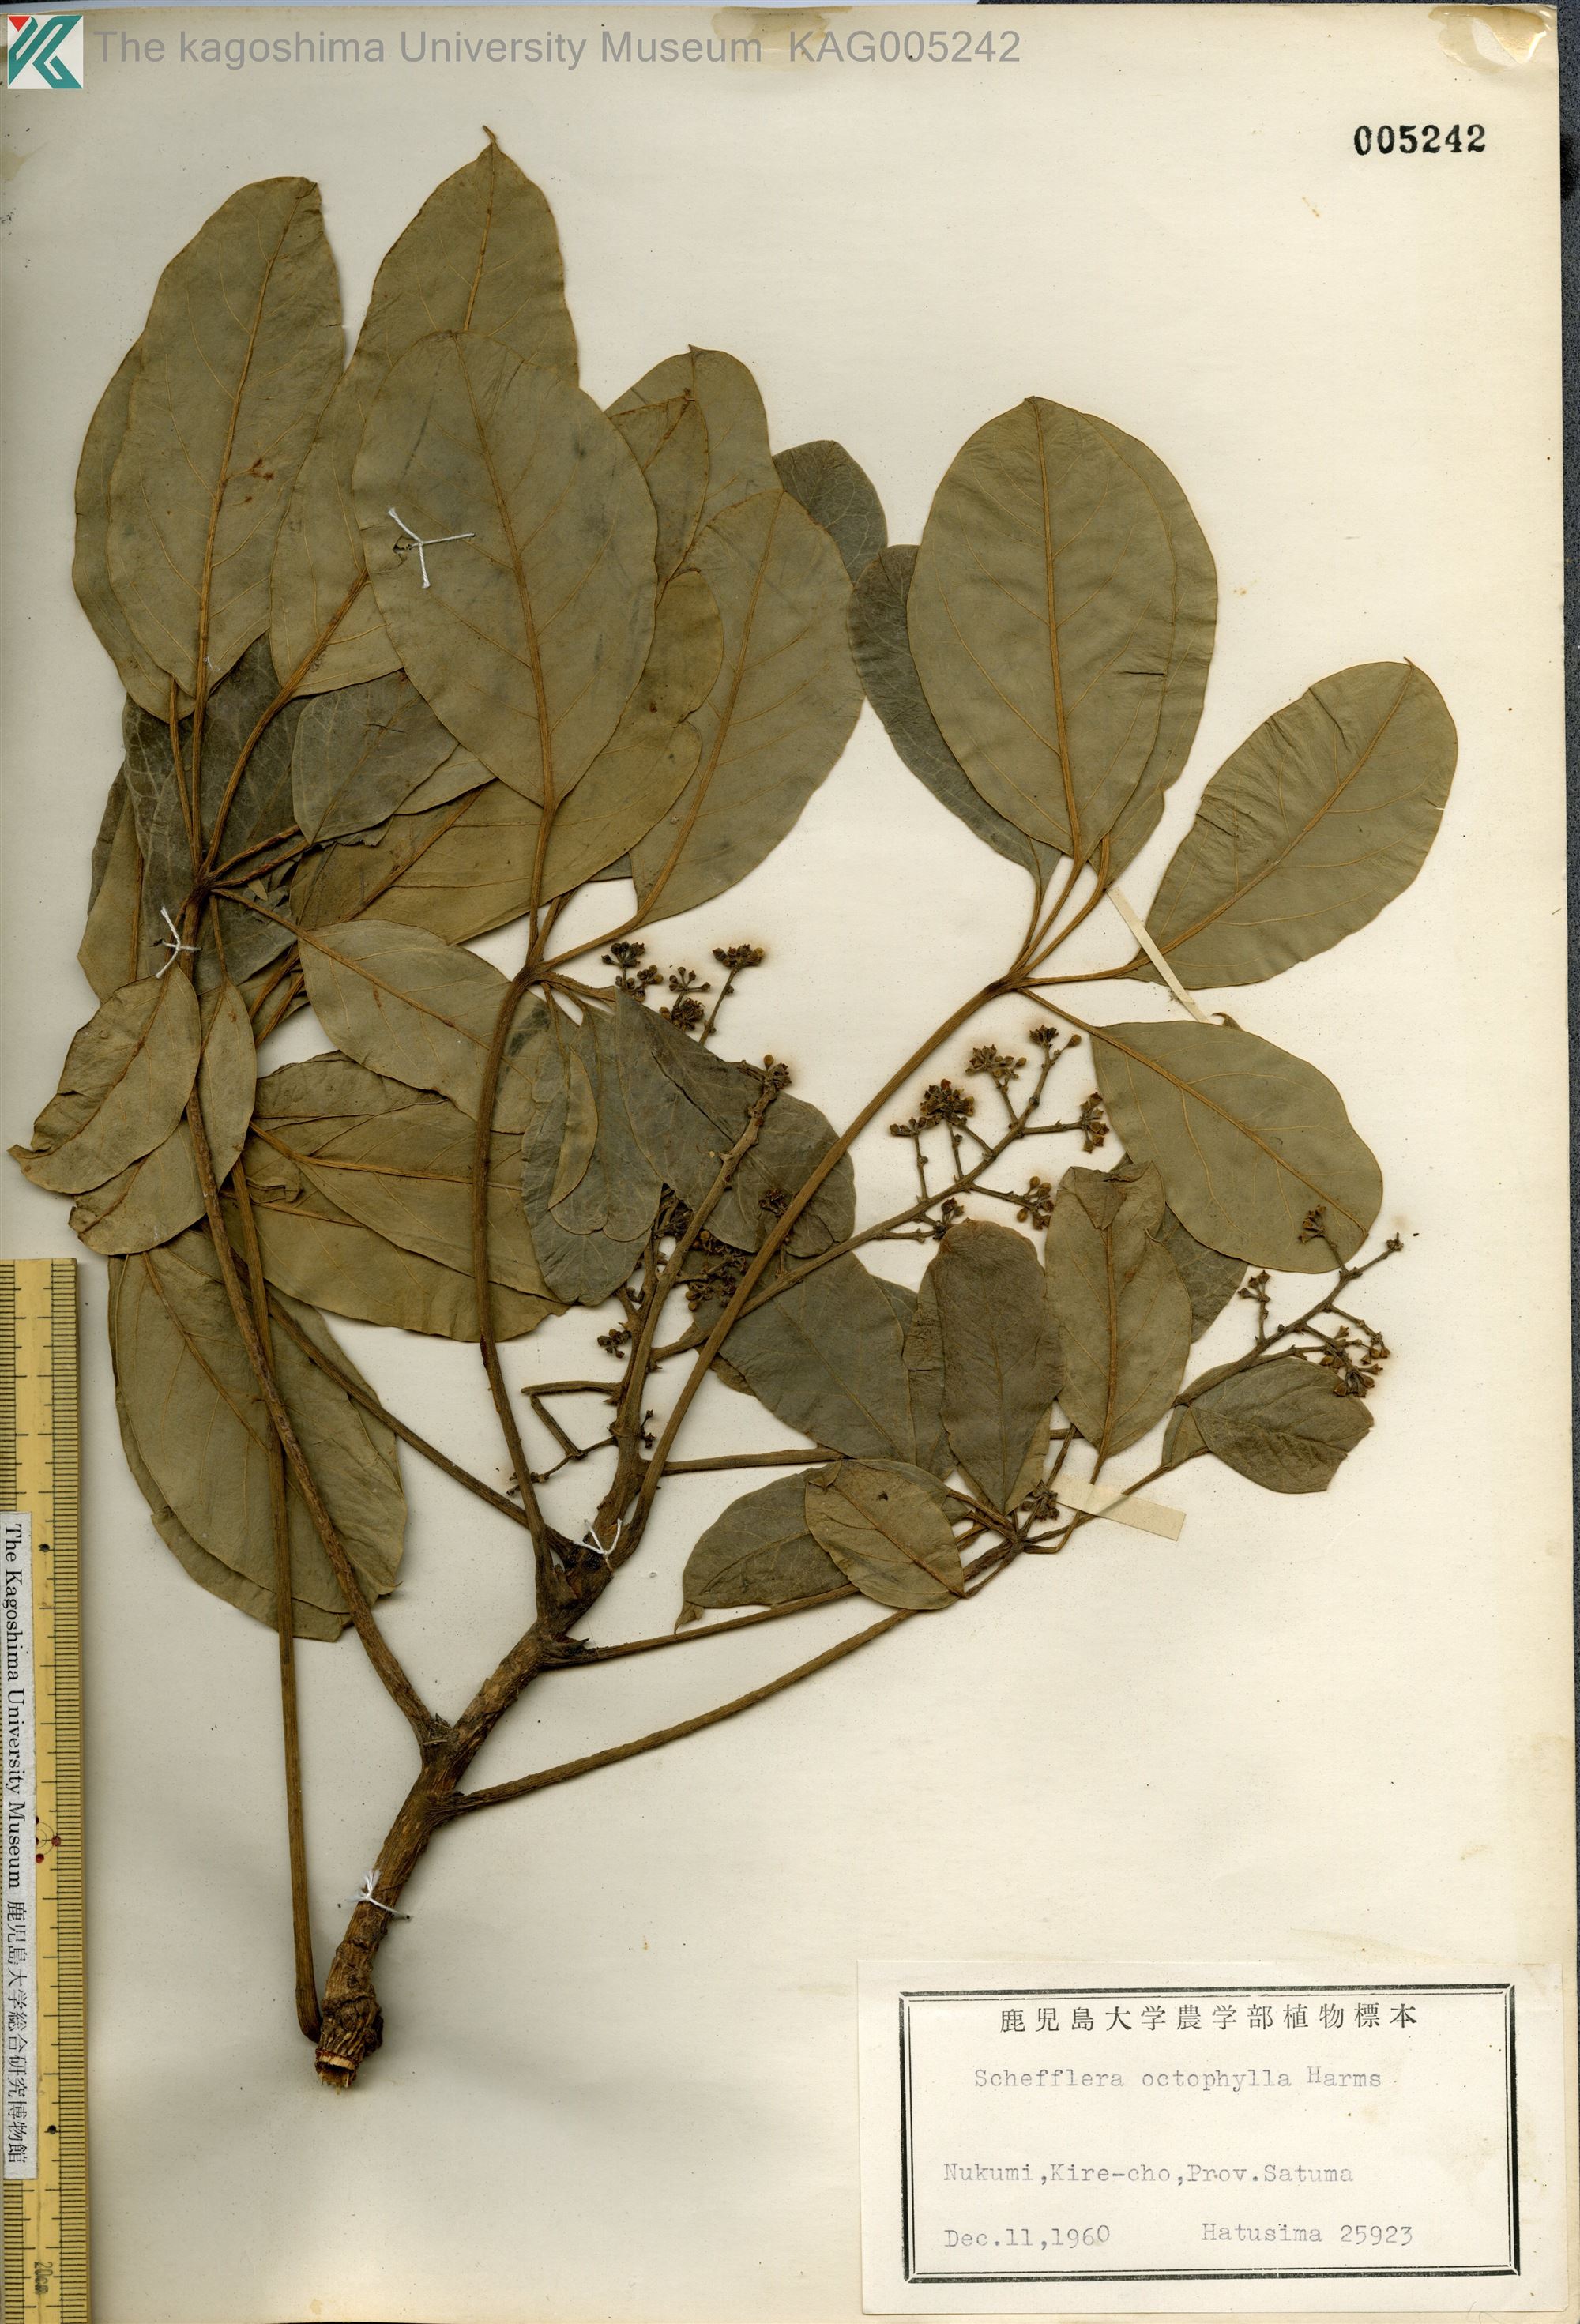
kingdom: Plantae
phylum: Tracheophyta
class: Magnoliopsida
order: Apiales
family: Araliaceae
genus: Heptapleurum
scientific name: Heptapleurum heptaphyllum
